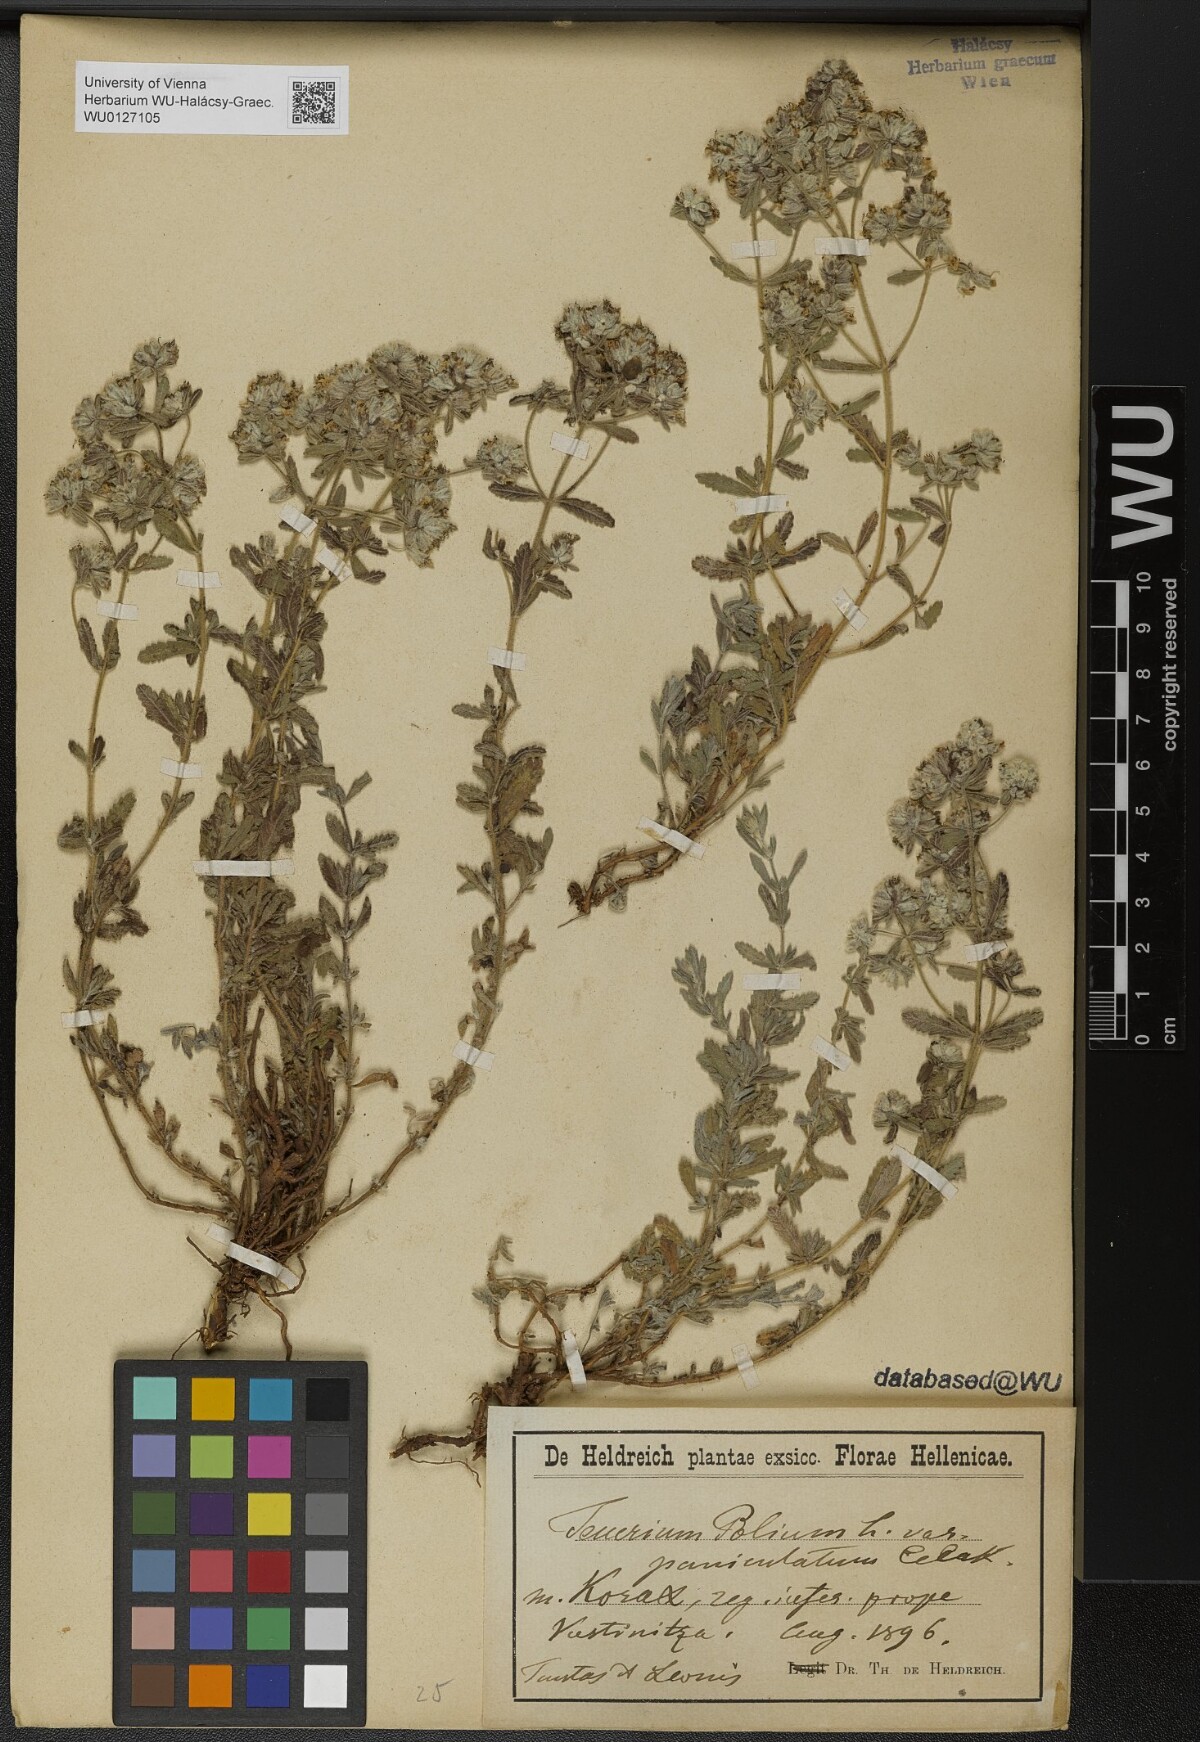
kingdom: Plantae
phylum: Tracheophyta
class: Magnoliopsida
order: Lamiales
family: Lamiaceae
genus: Teucrium
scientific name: Teucrium polium
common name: Poley
